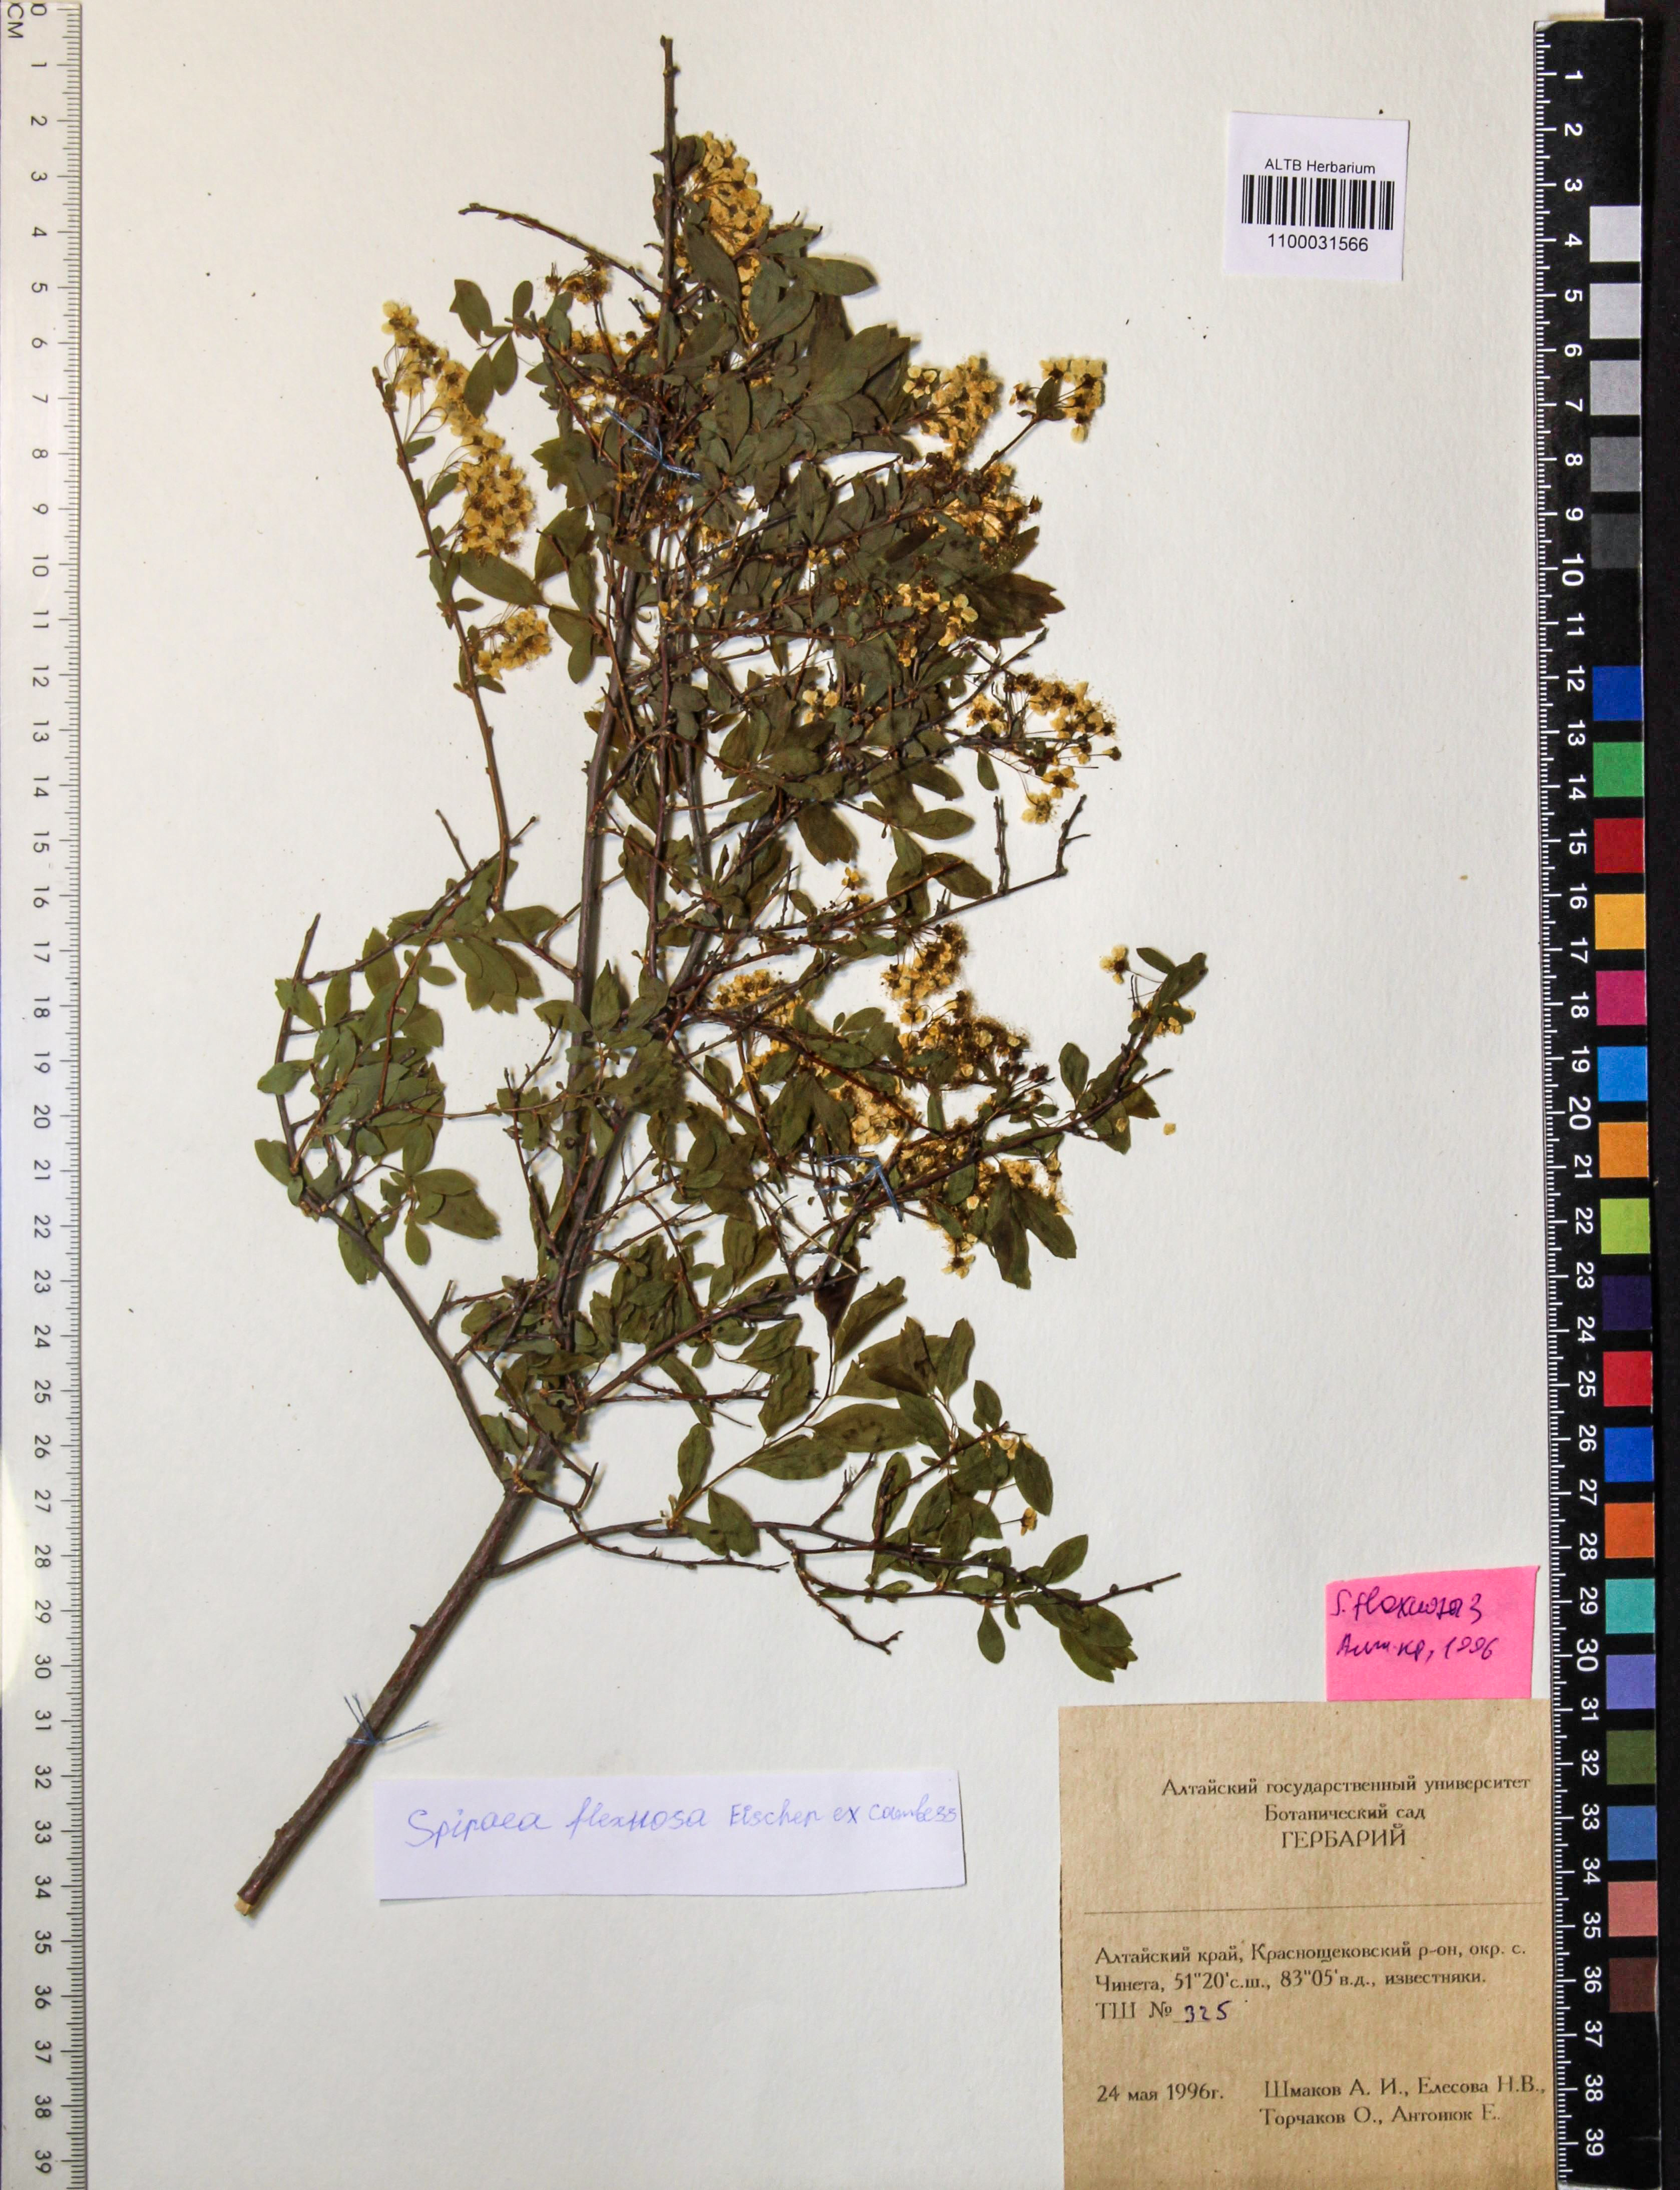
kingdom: Plantae
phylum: Tracheophyta
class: Magnoliopsida
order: Rosales
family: Rosaceae
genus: Spiraea
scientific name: Spiraea flexuosa
